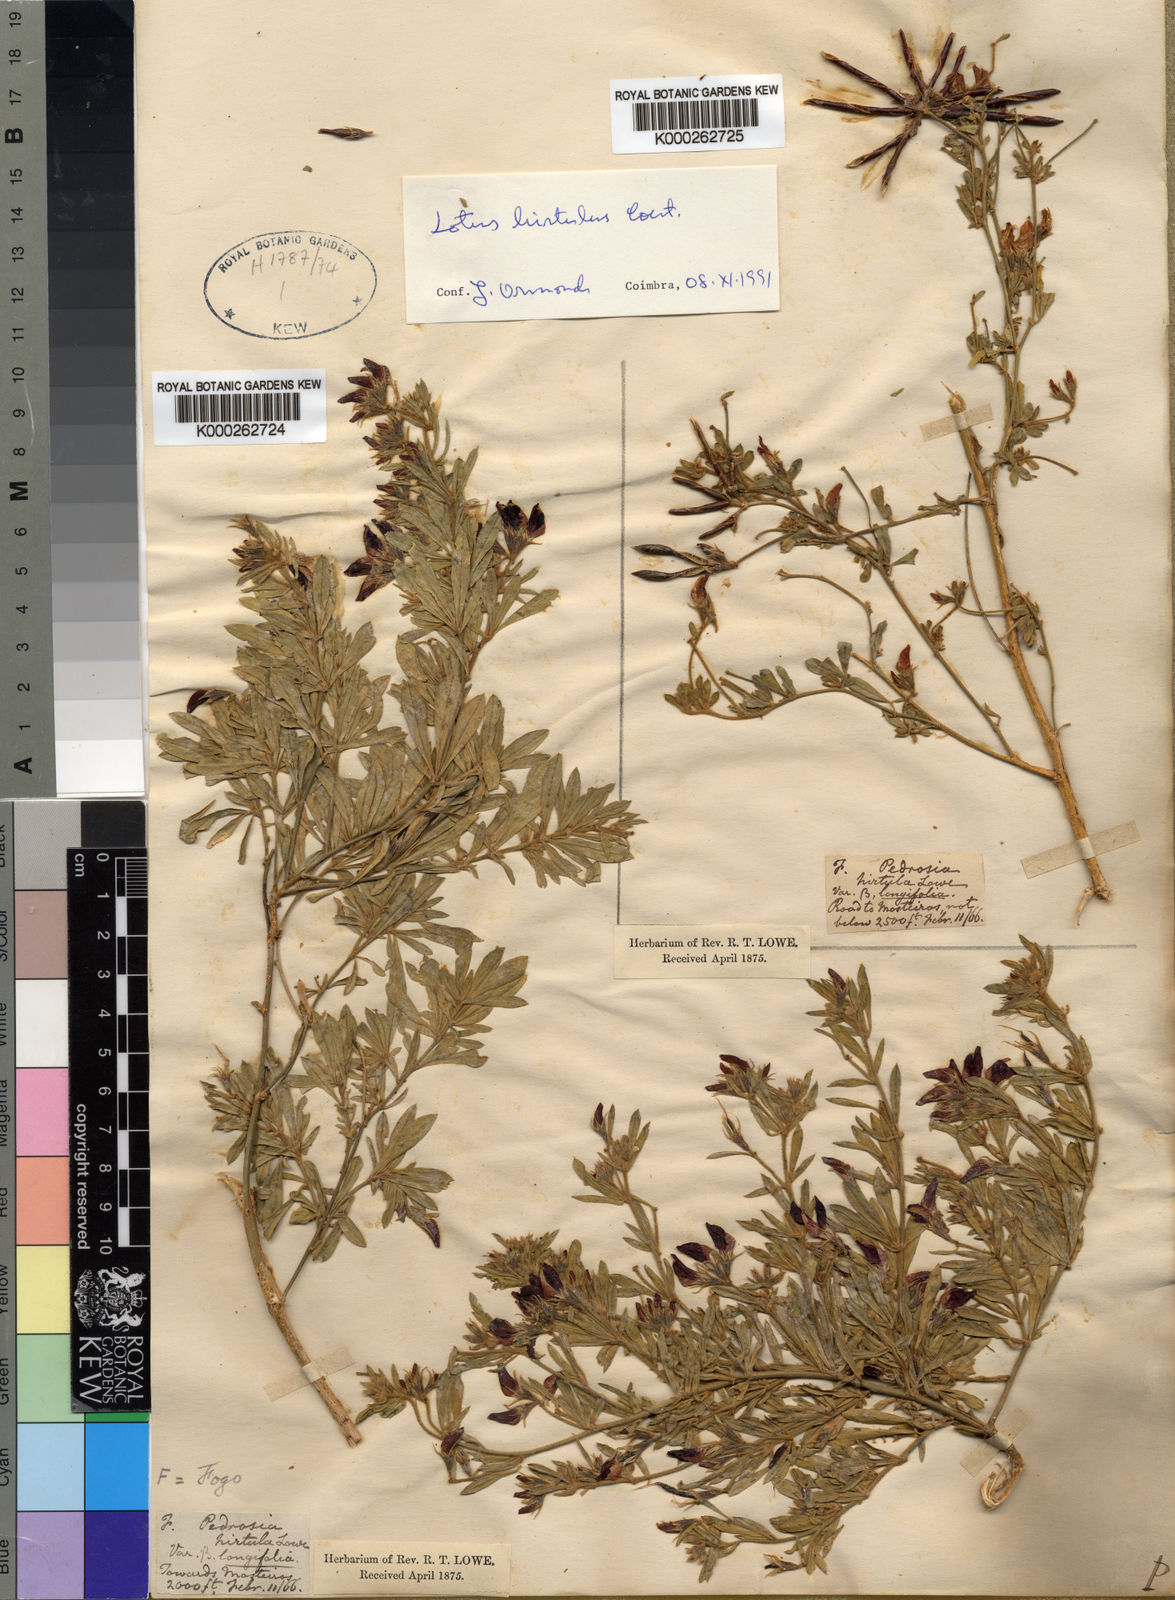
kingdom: Plantae
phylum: Tracheophyta
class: Magnoliopsida
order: Fabales
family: Fabaceae
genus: Lotus
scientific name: Lotus purpureus
